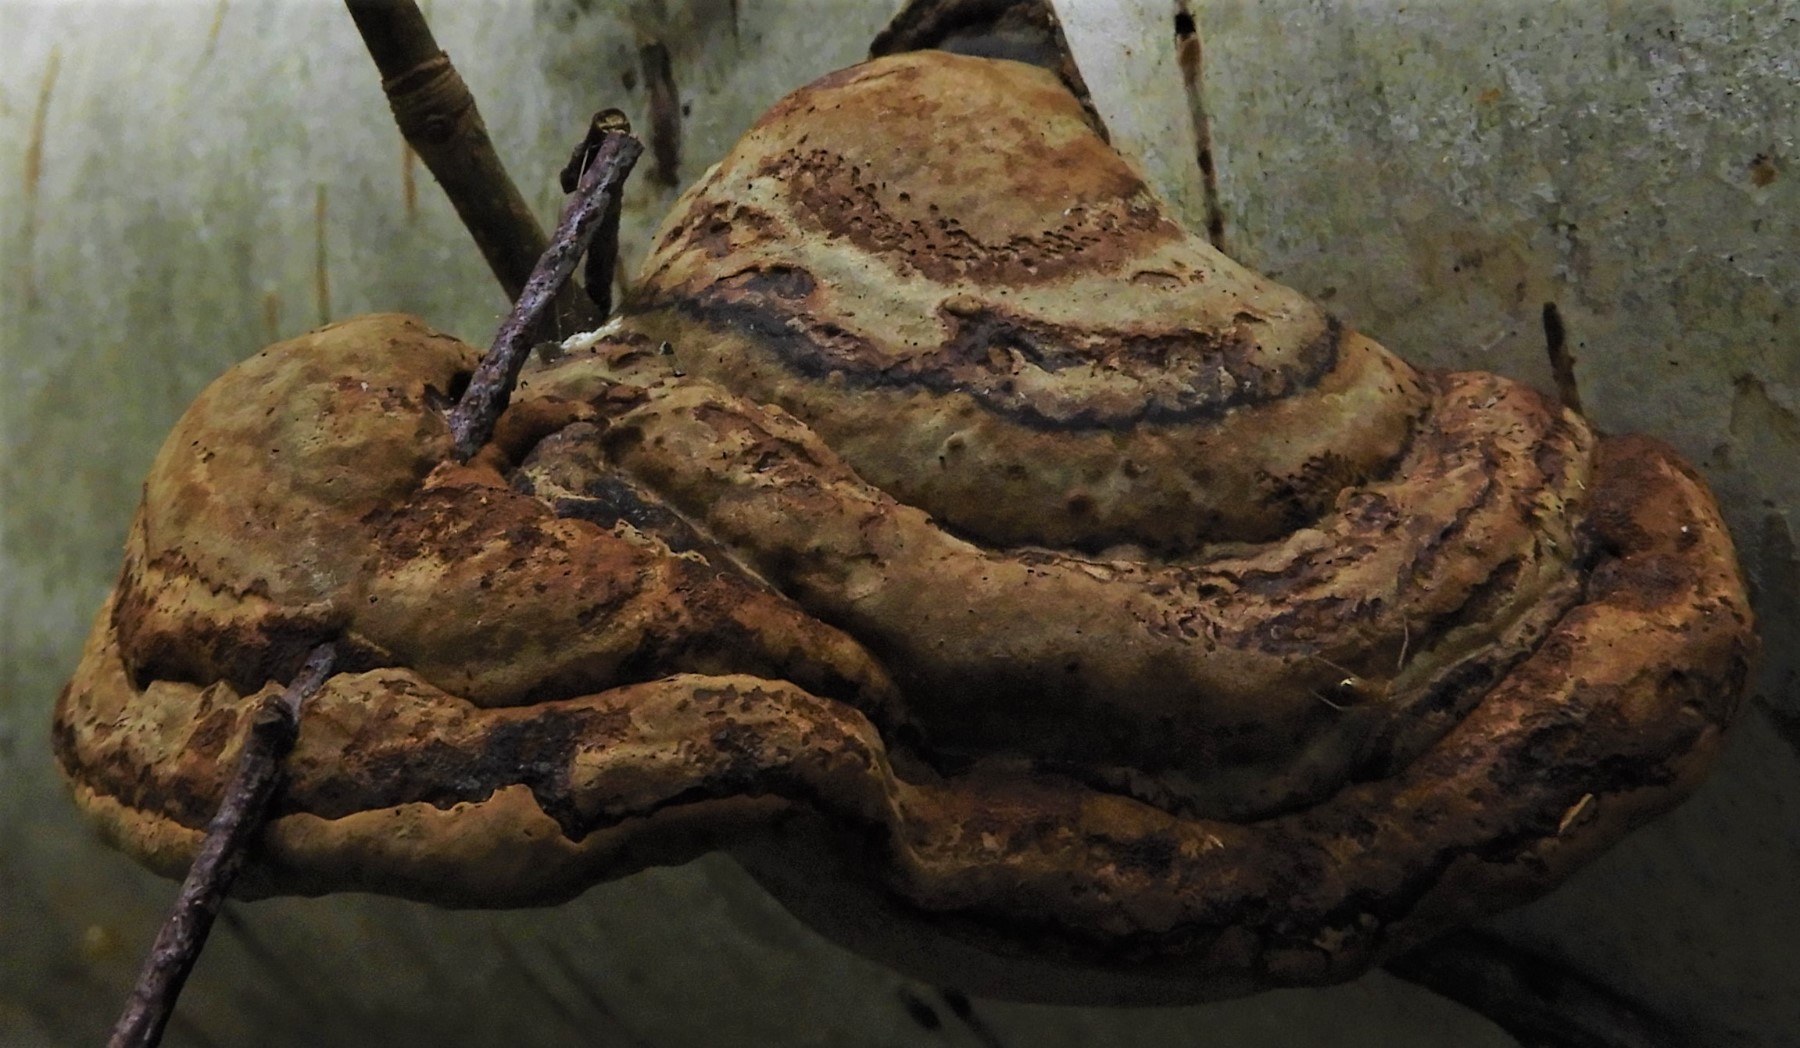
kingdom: Fungi
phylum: Basidiomycota
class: Agaricomycetes
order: Polyporales
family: Polyporaceae
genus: Fomes
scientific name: Fomes fomentarius
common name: tøndersvamp
